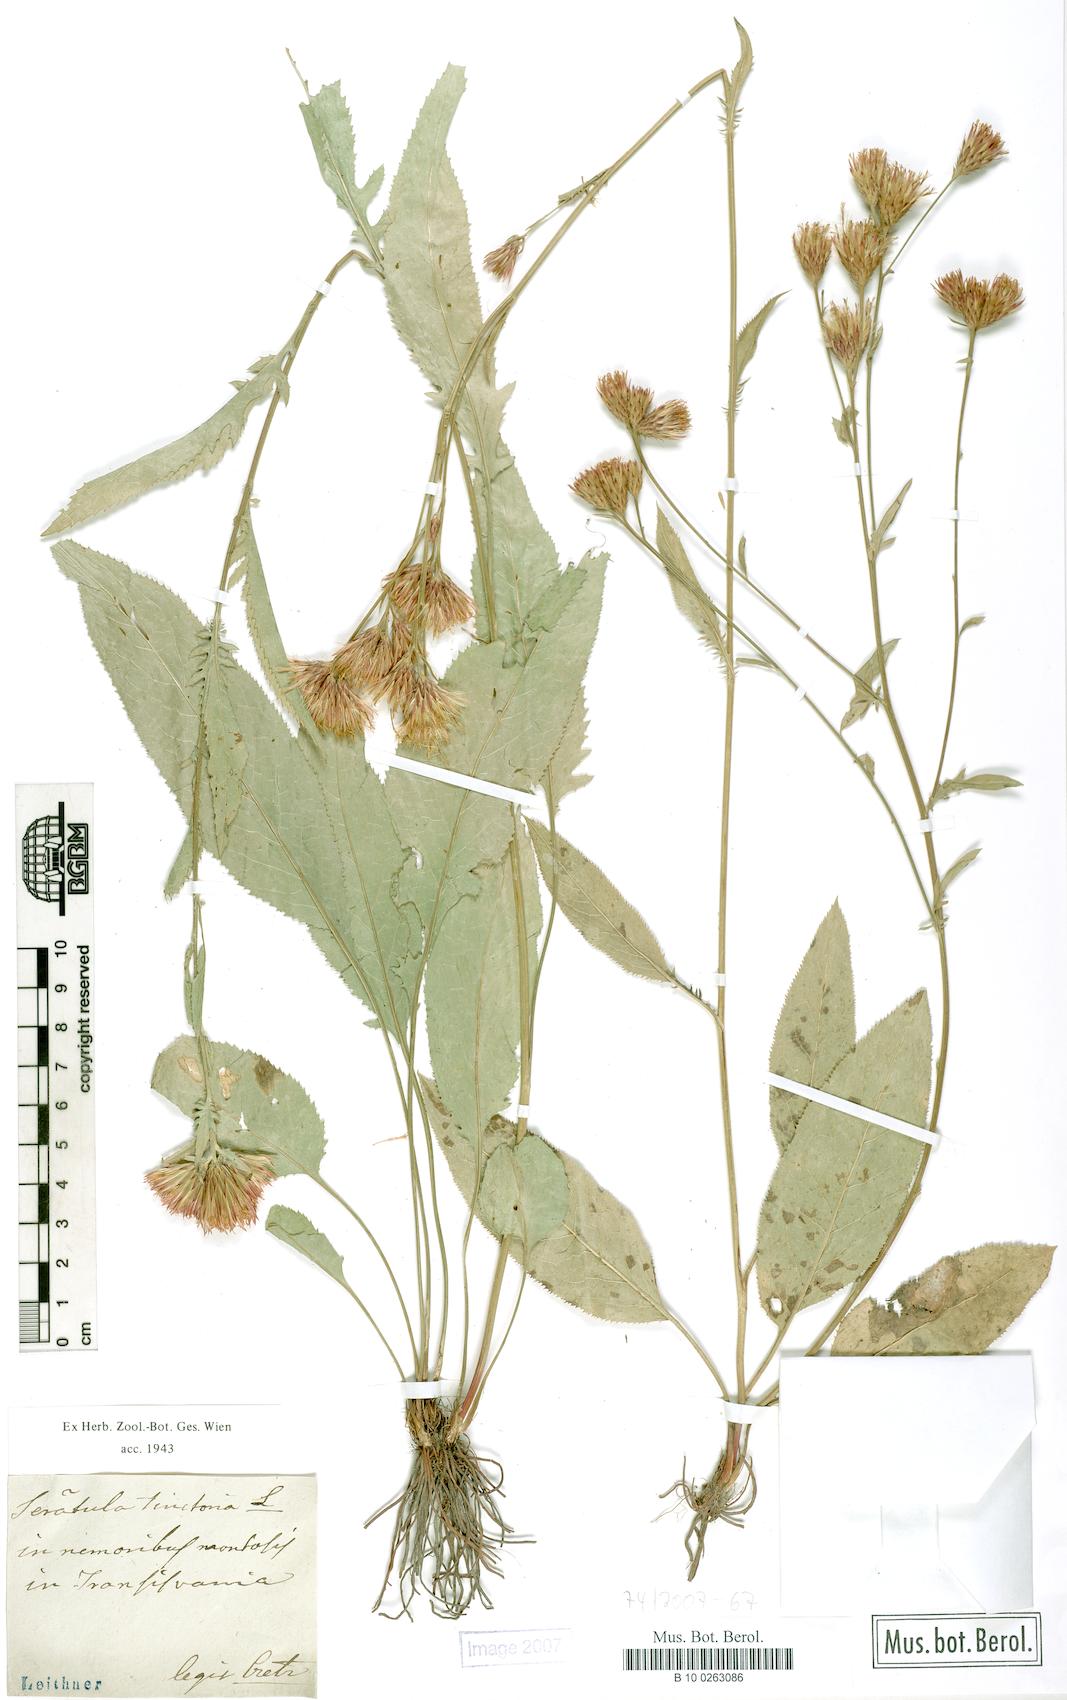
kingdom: Plantae
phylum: Tracheophyta
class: Magnoliopsida
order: Asterales
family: Asteraceae
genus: Serratula
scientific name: Serratula tinctoria
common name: Saw-wort
